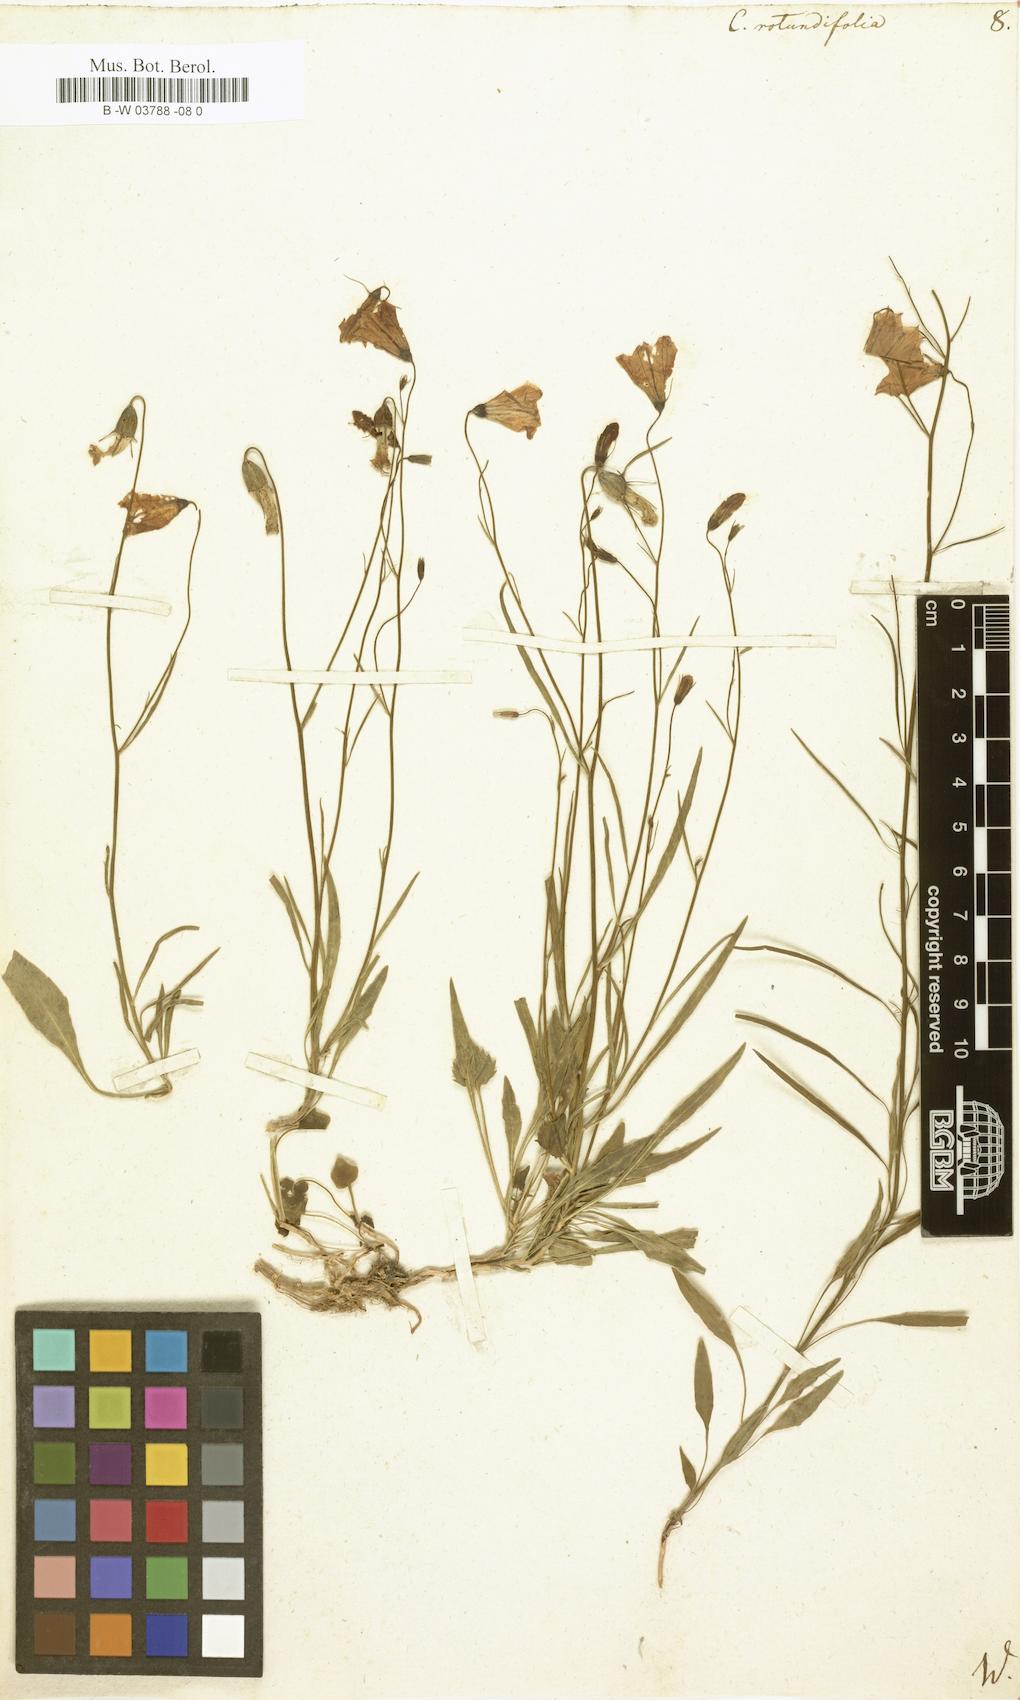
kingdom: Plantae
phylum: Tracheophyta
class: Magnoliopsida
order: Asterales
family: Campanulaceae
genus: Campanula
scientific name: Campanula rotundifolia
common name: Harebell
